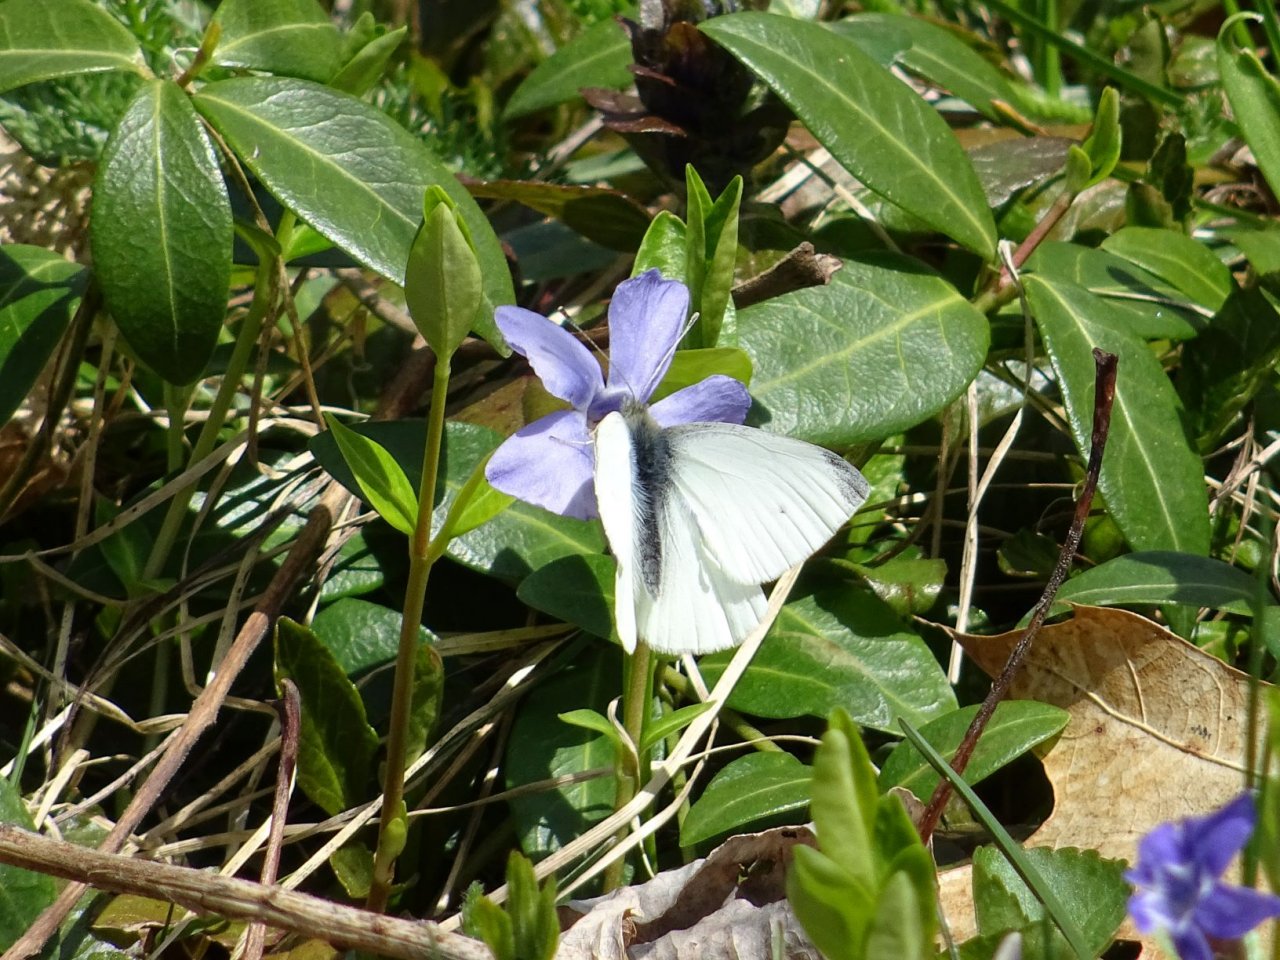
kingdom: Animalia
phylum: Arthropoda
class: Insecta
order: Lepidoptera
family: Pieridae
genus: Pieris
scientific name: Pieris rapae
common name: Cabbage White
